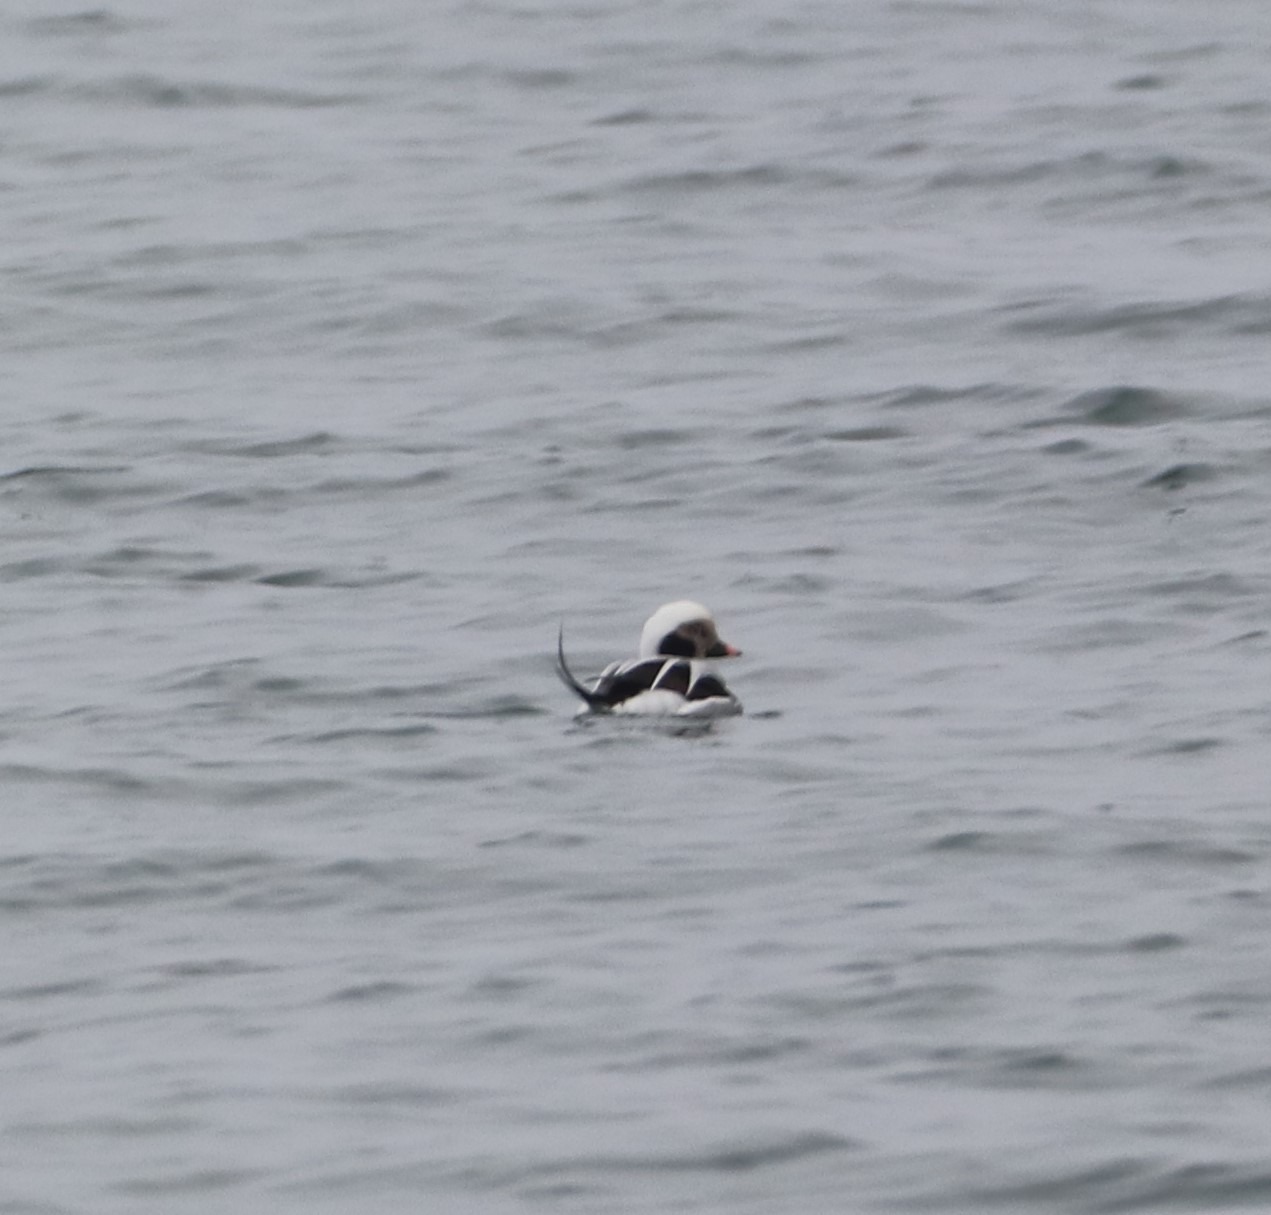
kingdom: Animalia
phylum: Chordata
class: Aves
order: Anseriformes
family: Anatidae
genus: Clangula
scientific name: Clangula hyemalis
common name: Havlit
